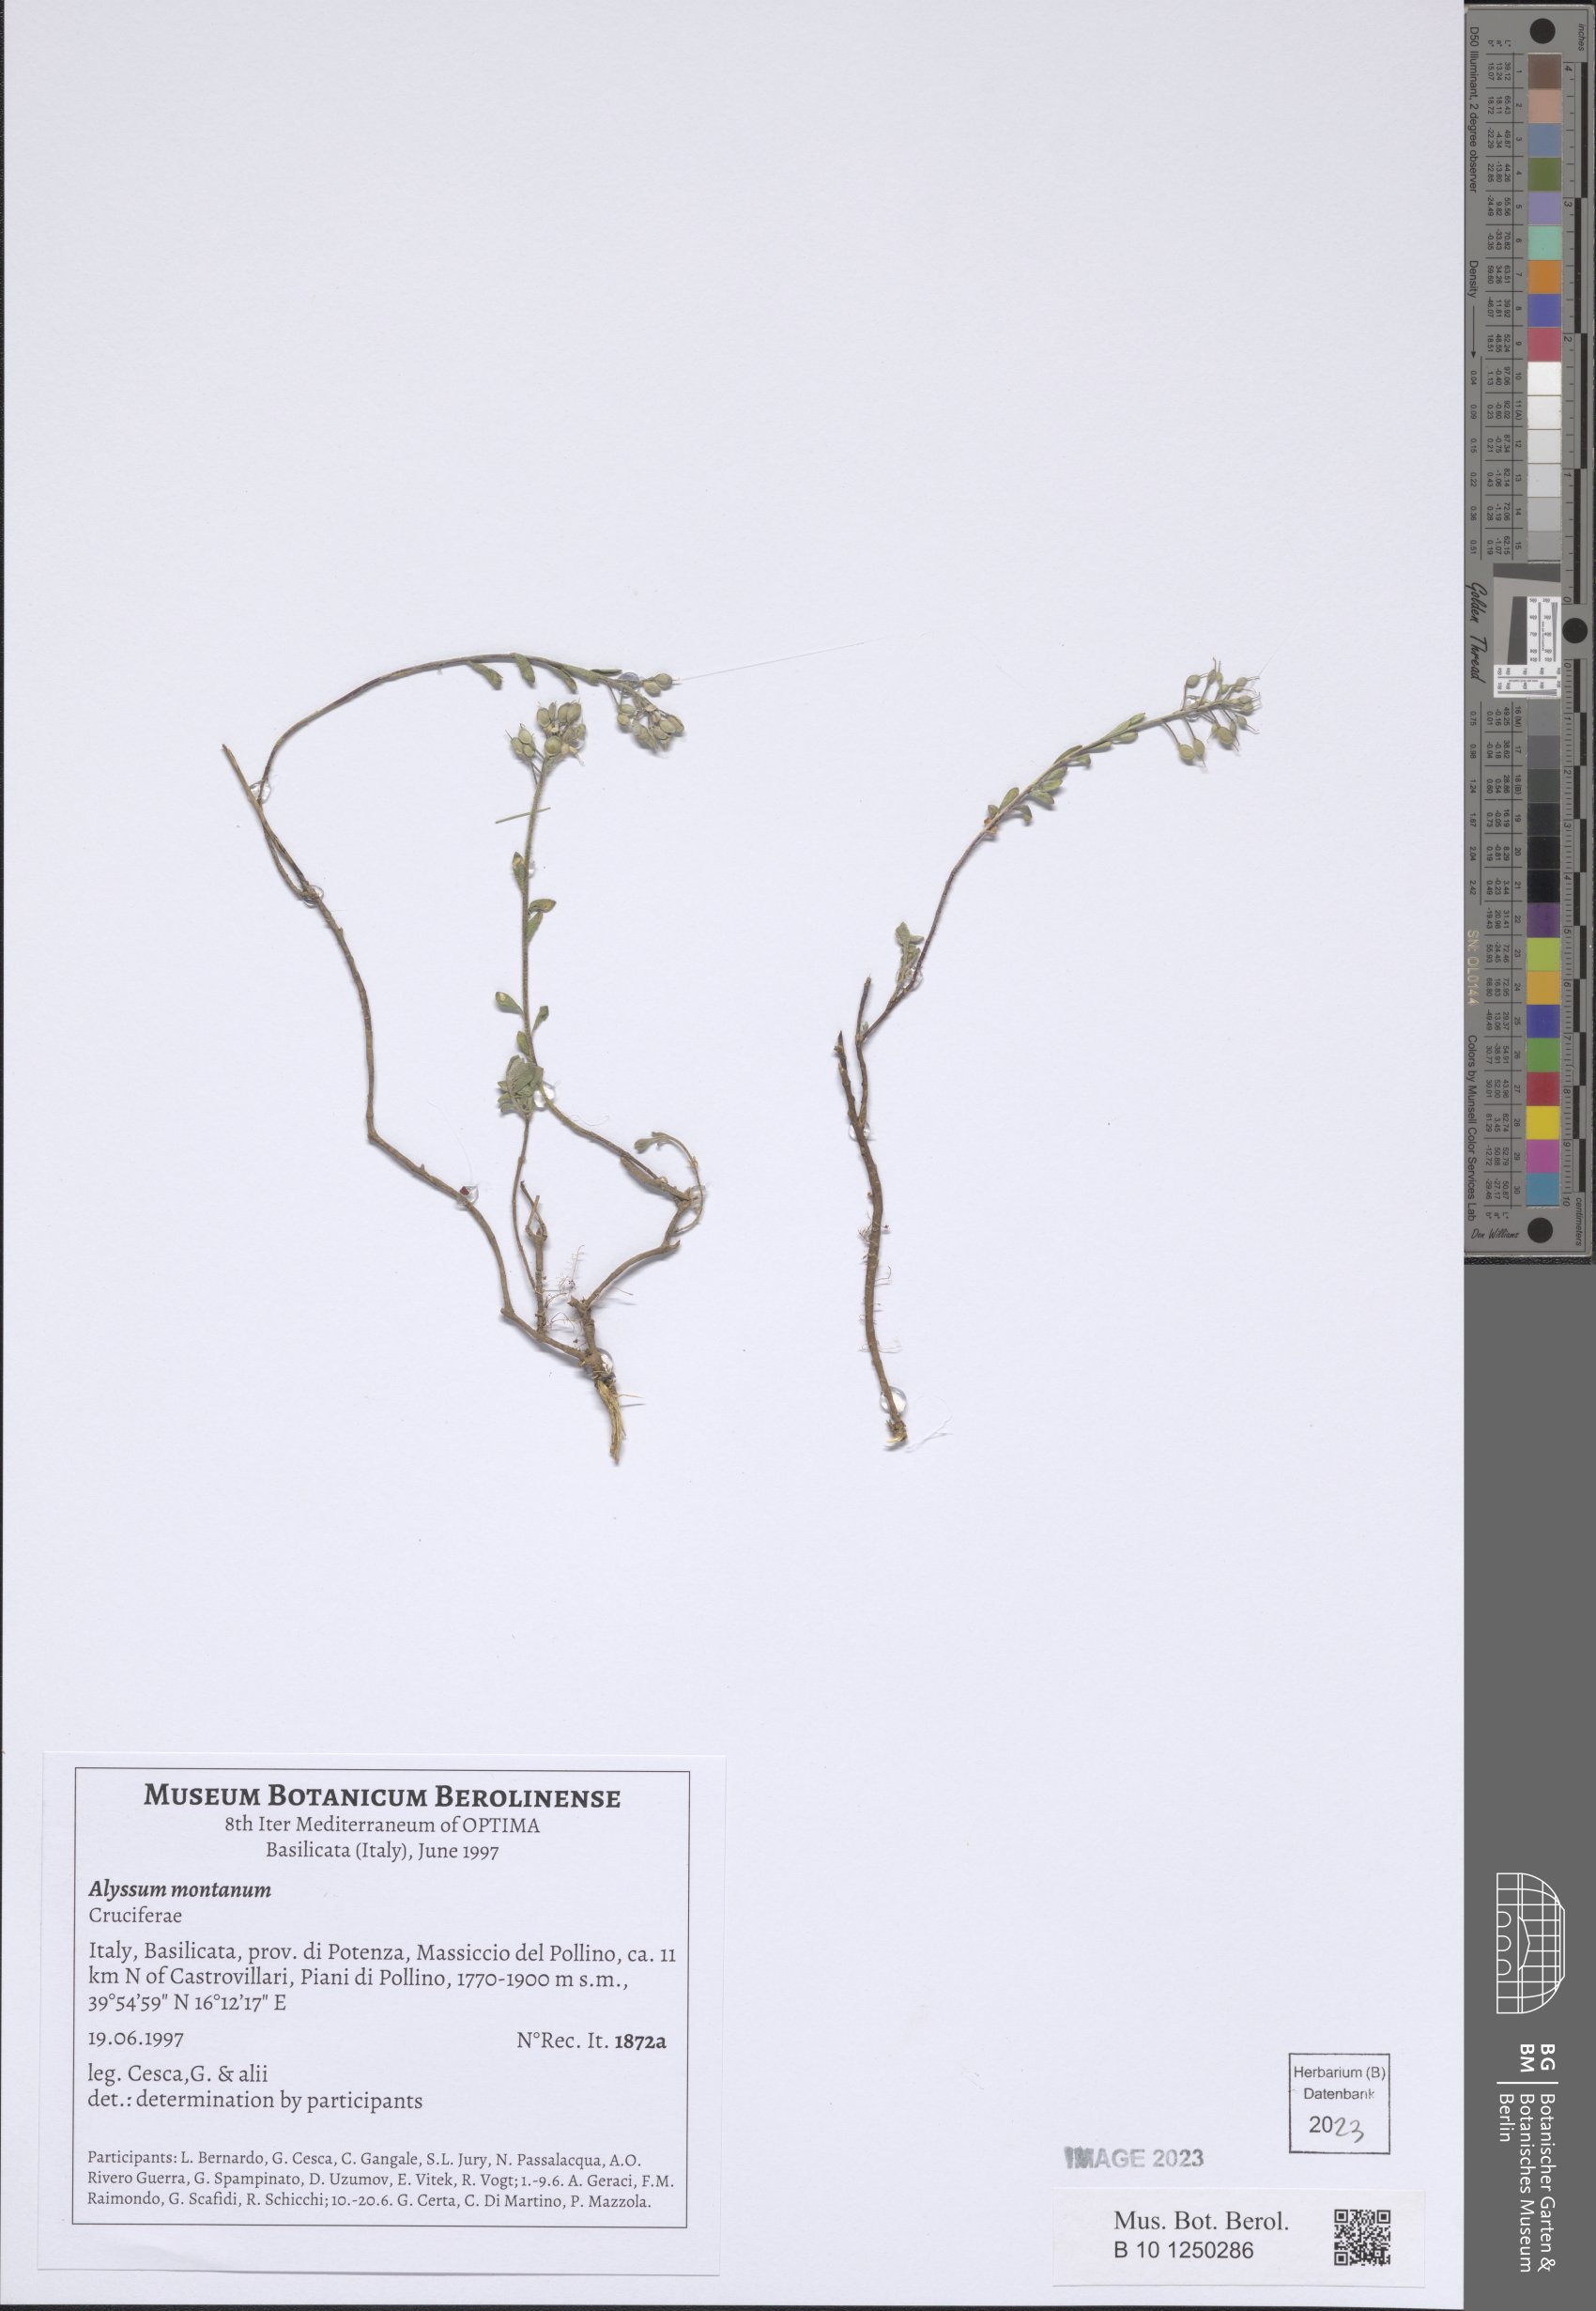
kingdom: Plantae
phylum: Tracheophyta
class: Magnoliopsida
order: Brassicales
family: Brassicaceae
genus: Alyssum
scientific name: Alyssum montanum
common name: Mountain alison
